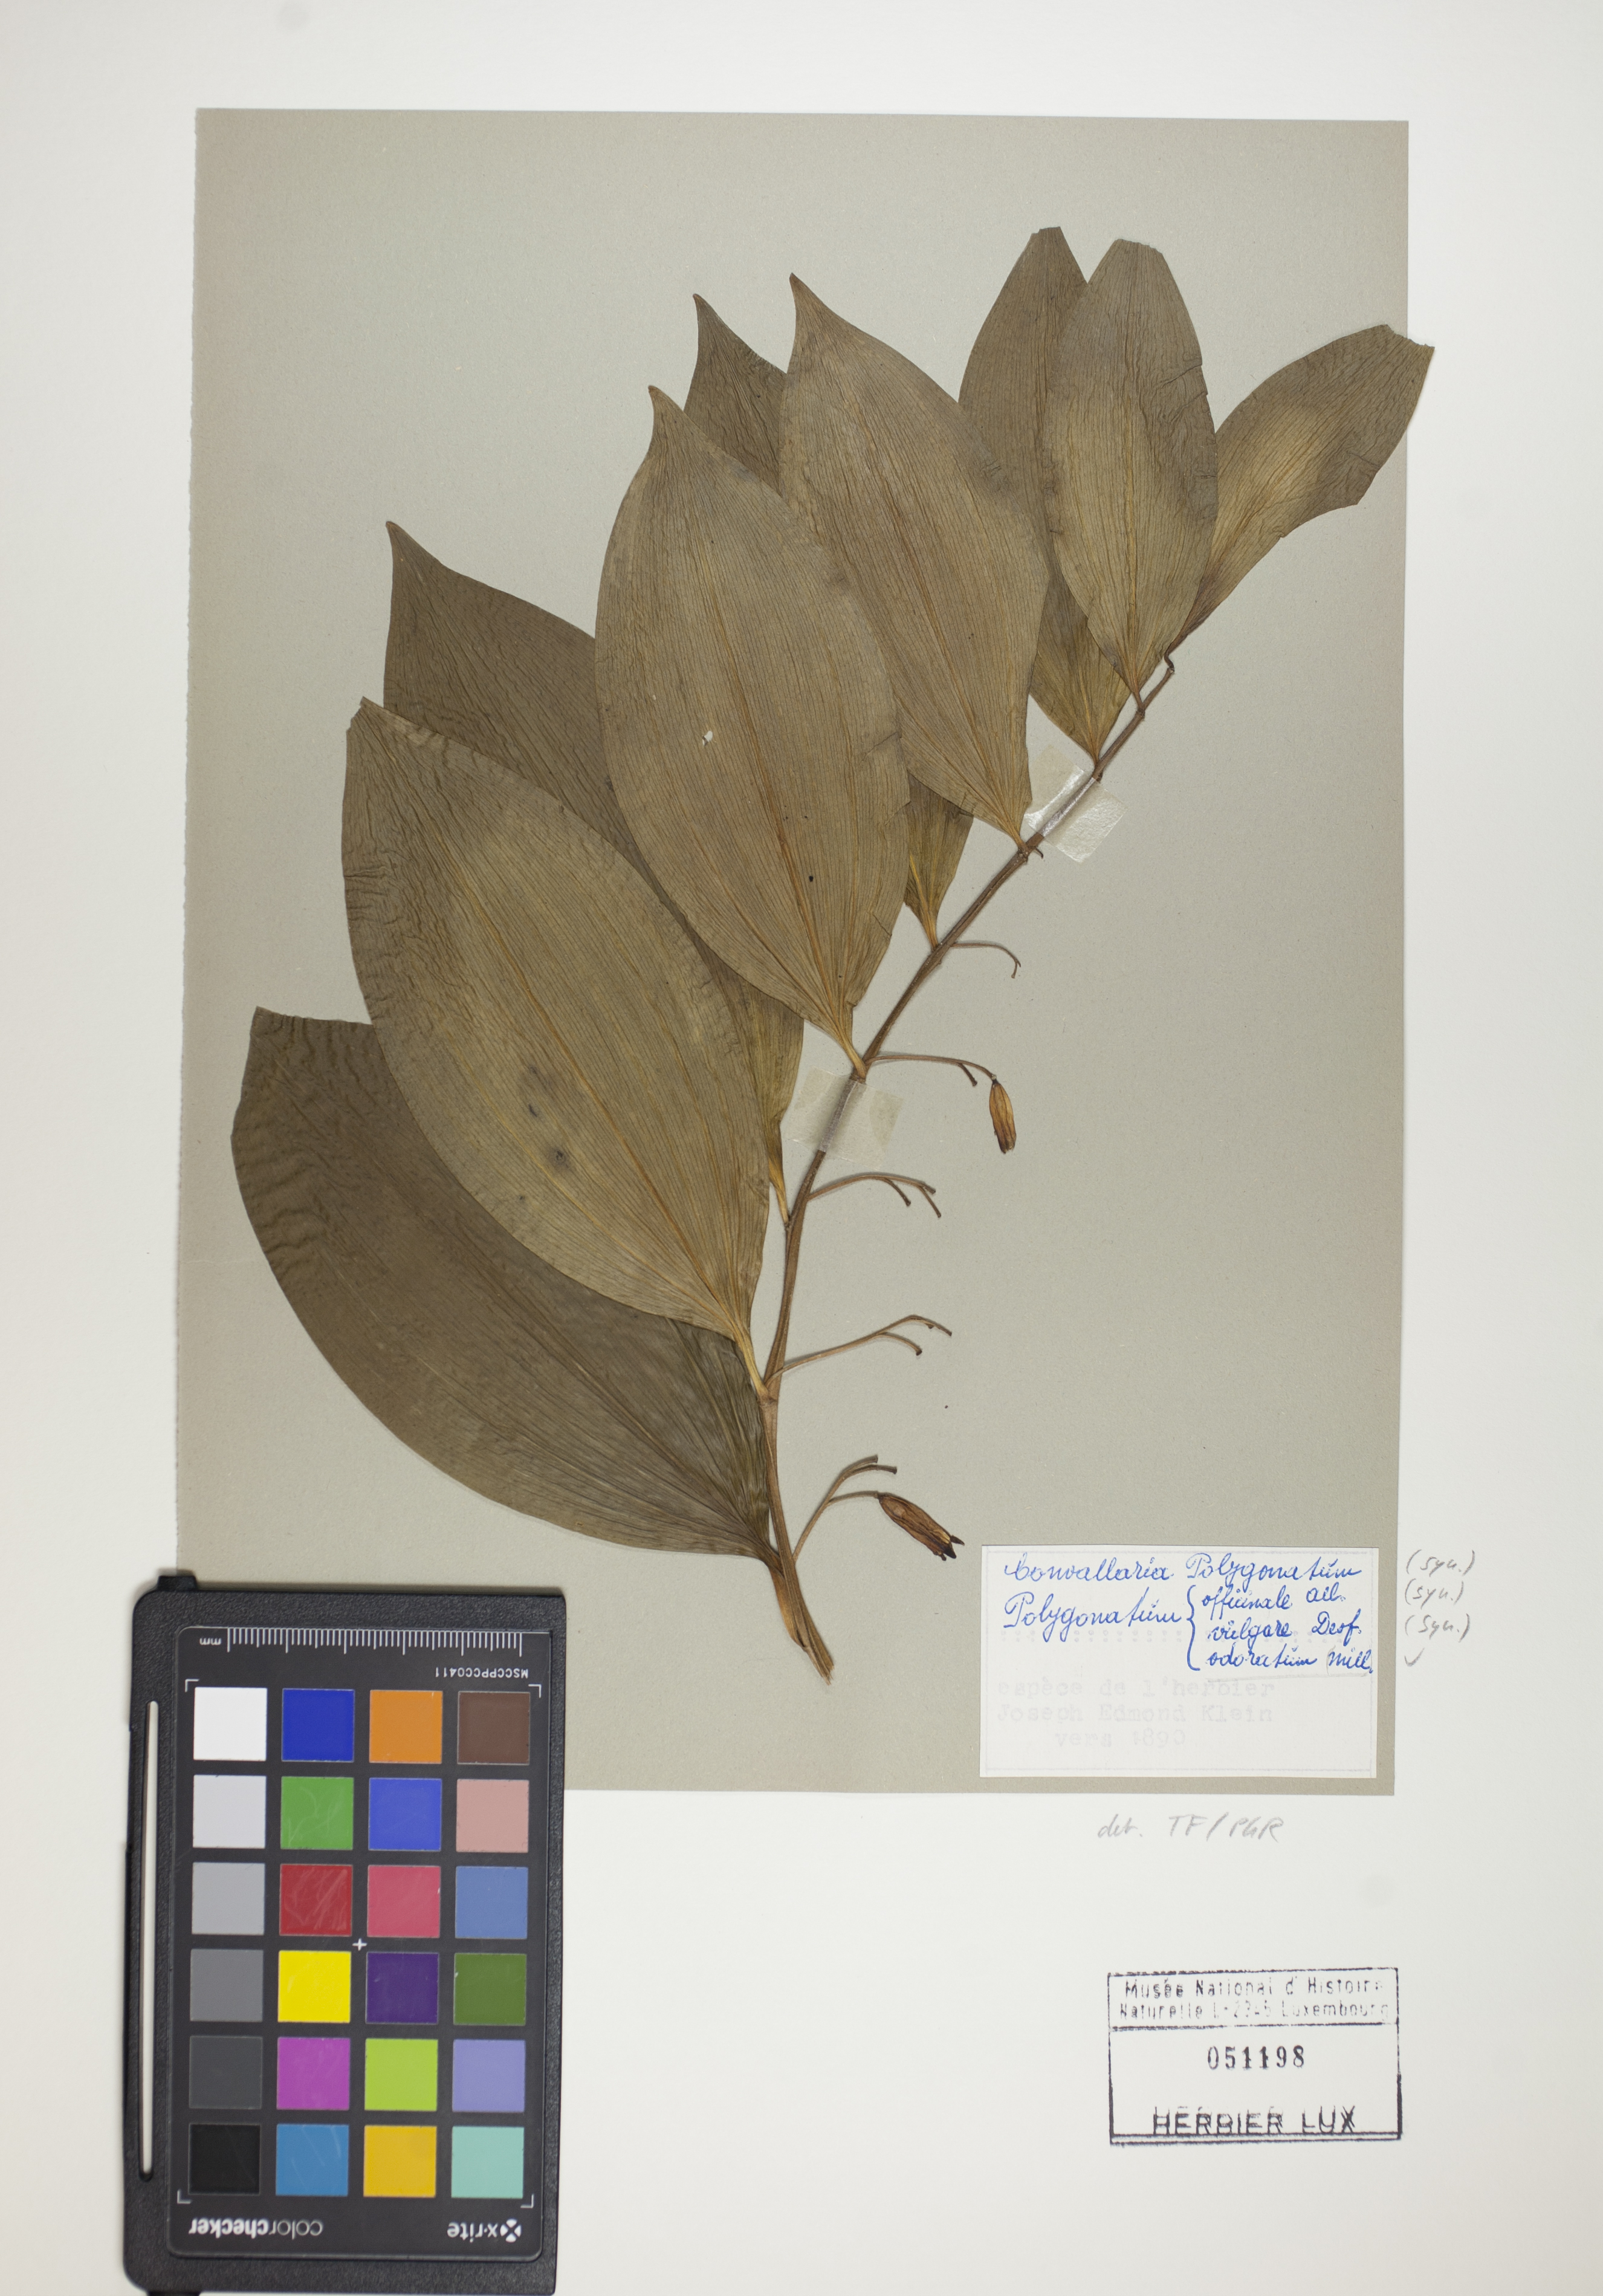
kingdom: Plantae
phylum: Tracheophyta
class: Liliopsida
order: Asparagales
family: Asparagaceae
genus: Polygonatum
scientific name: Polygonatum odoratum
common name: Angular solomon's-seal
